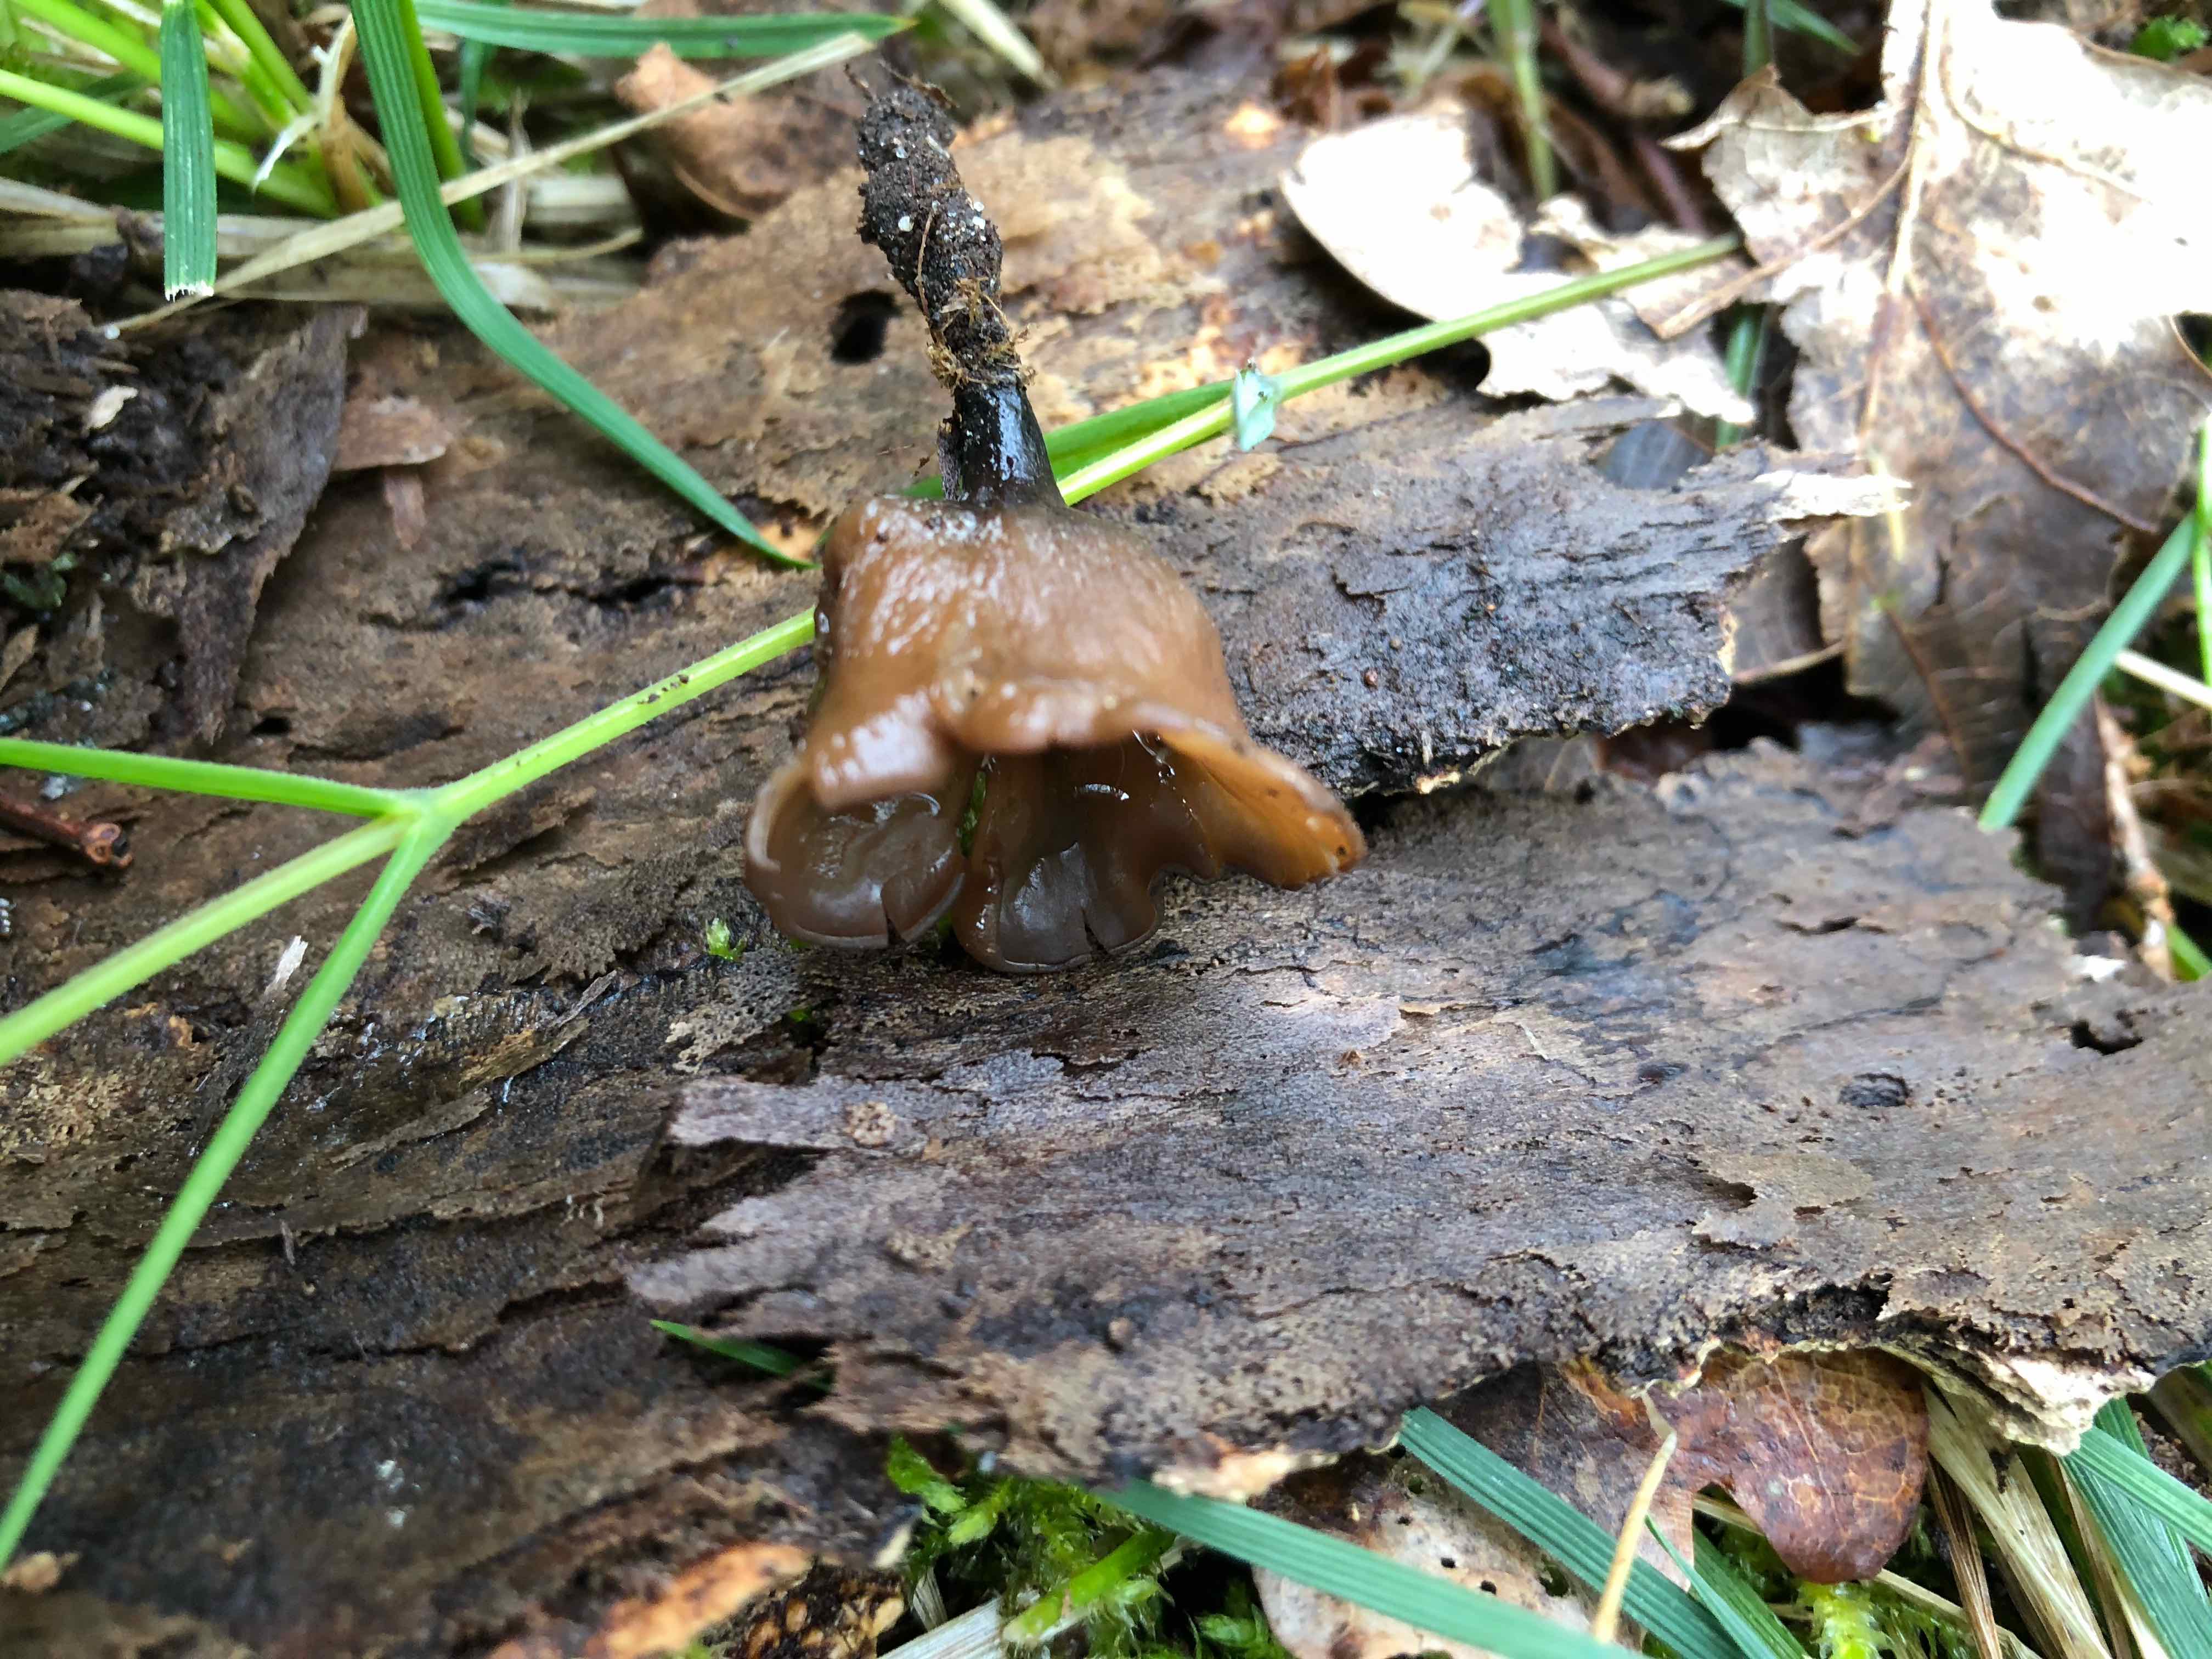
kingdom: Fungi
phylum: Ascomycota
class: Leotiomycetes
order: Helotiales
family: Sclerotiniaceae
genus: Dumontinia
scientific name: Dumontinia tuberosa
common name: anemone-knoldskive
